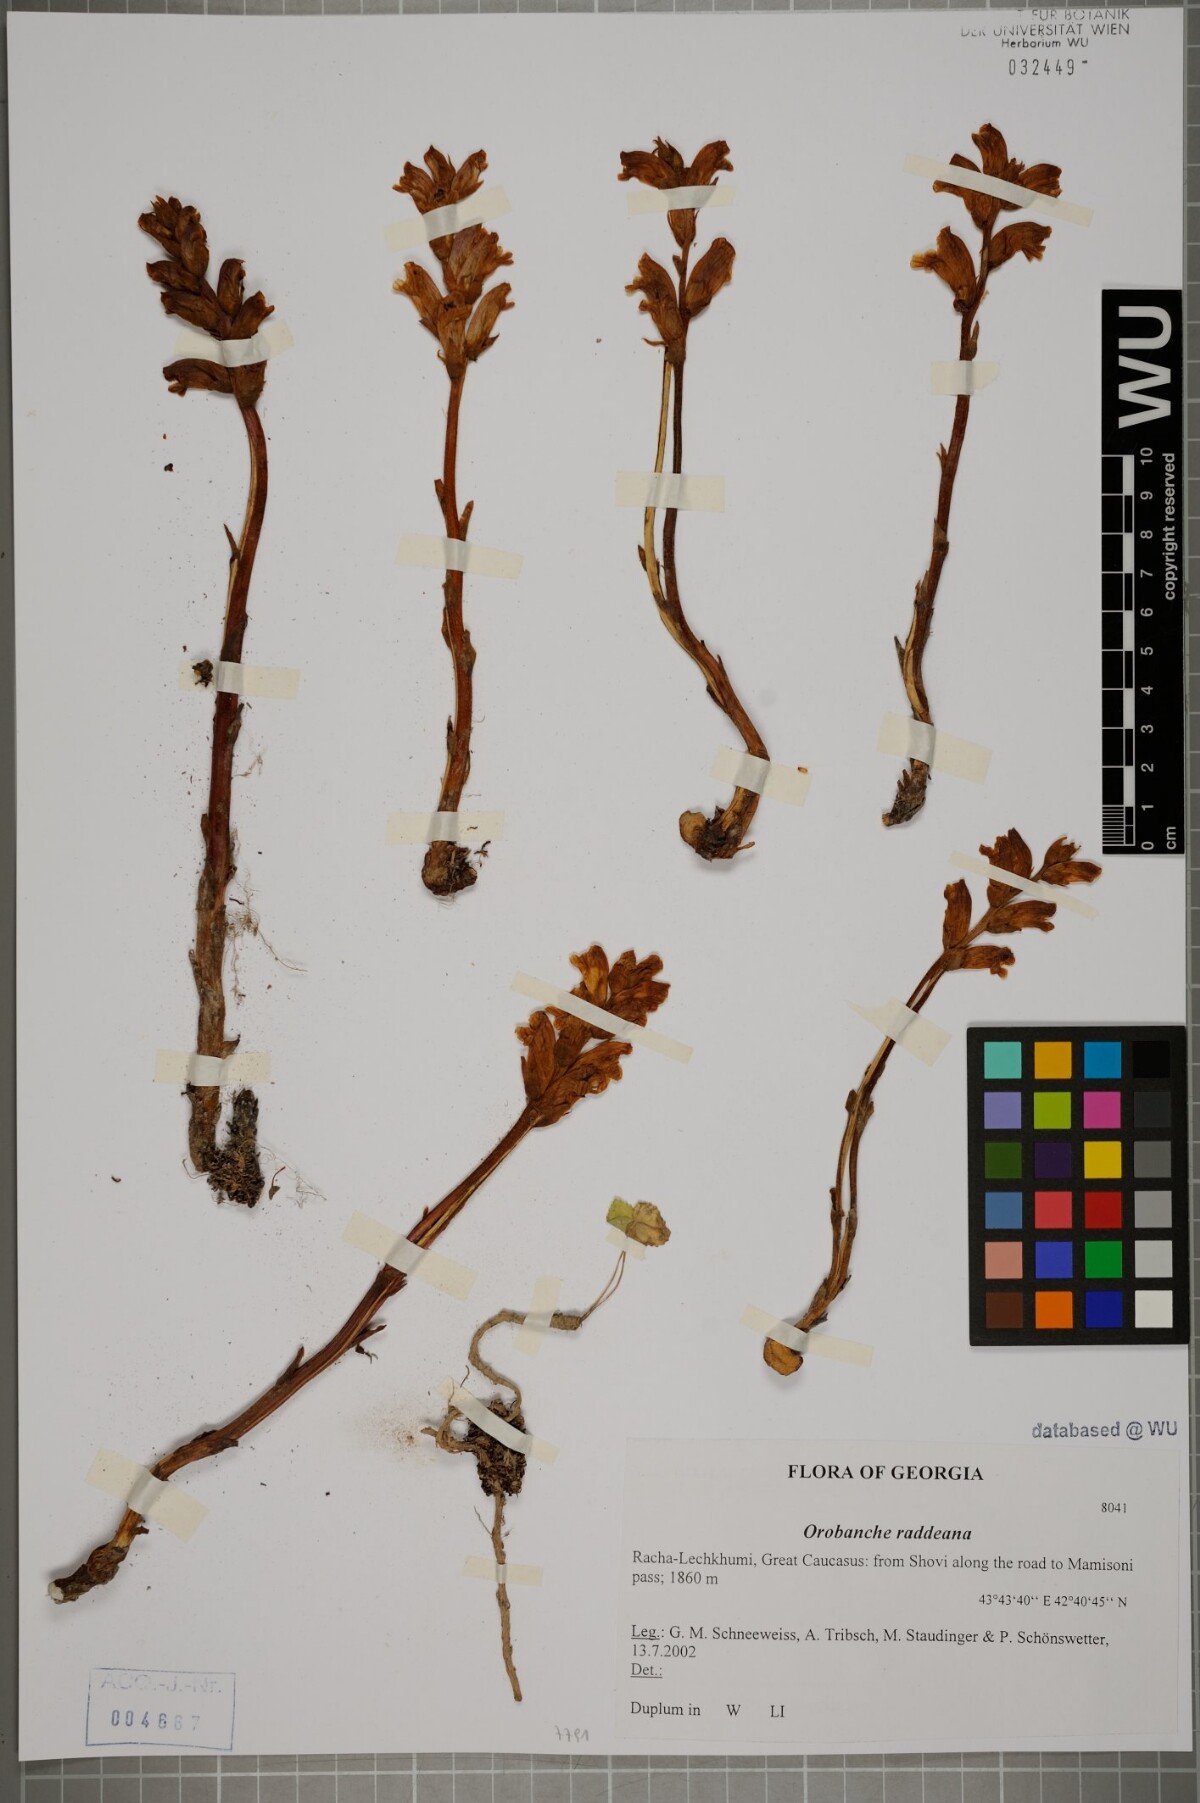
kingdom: Plantae
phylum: Tracheophyta
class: Magnoliopsida
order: Lamiales
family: Orobanchaceae
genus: Orobanche
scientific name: Orobanche alba
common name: Thyme broomrape
